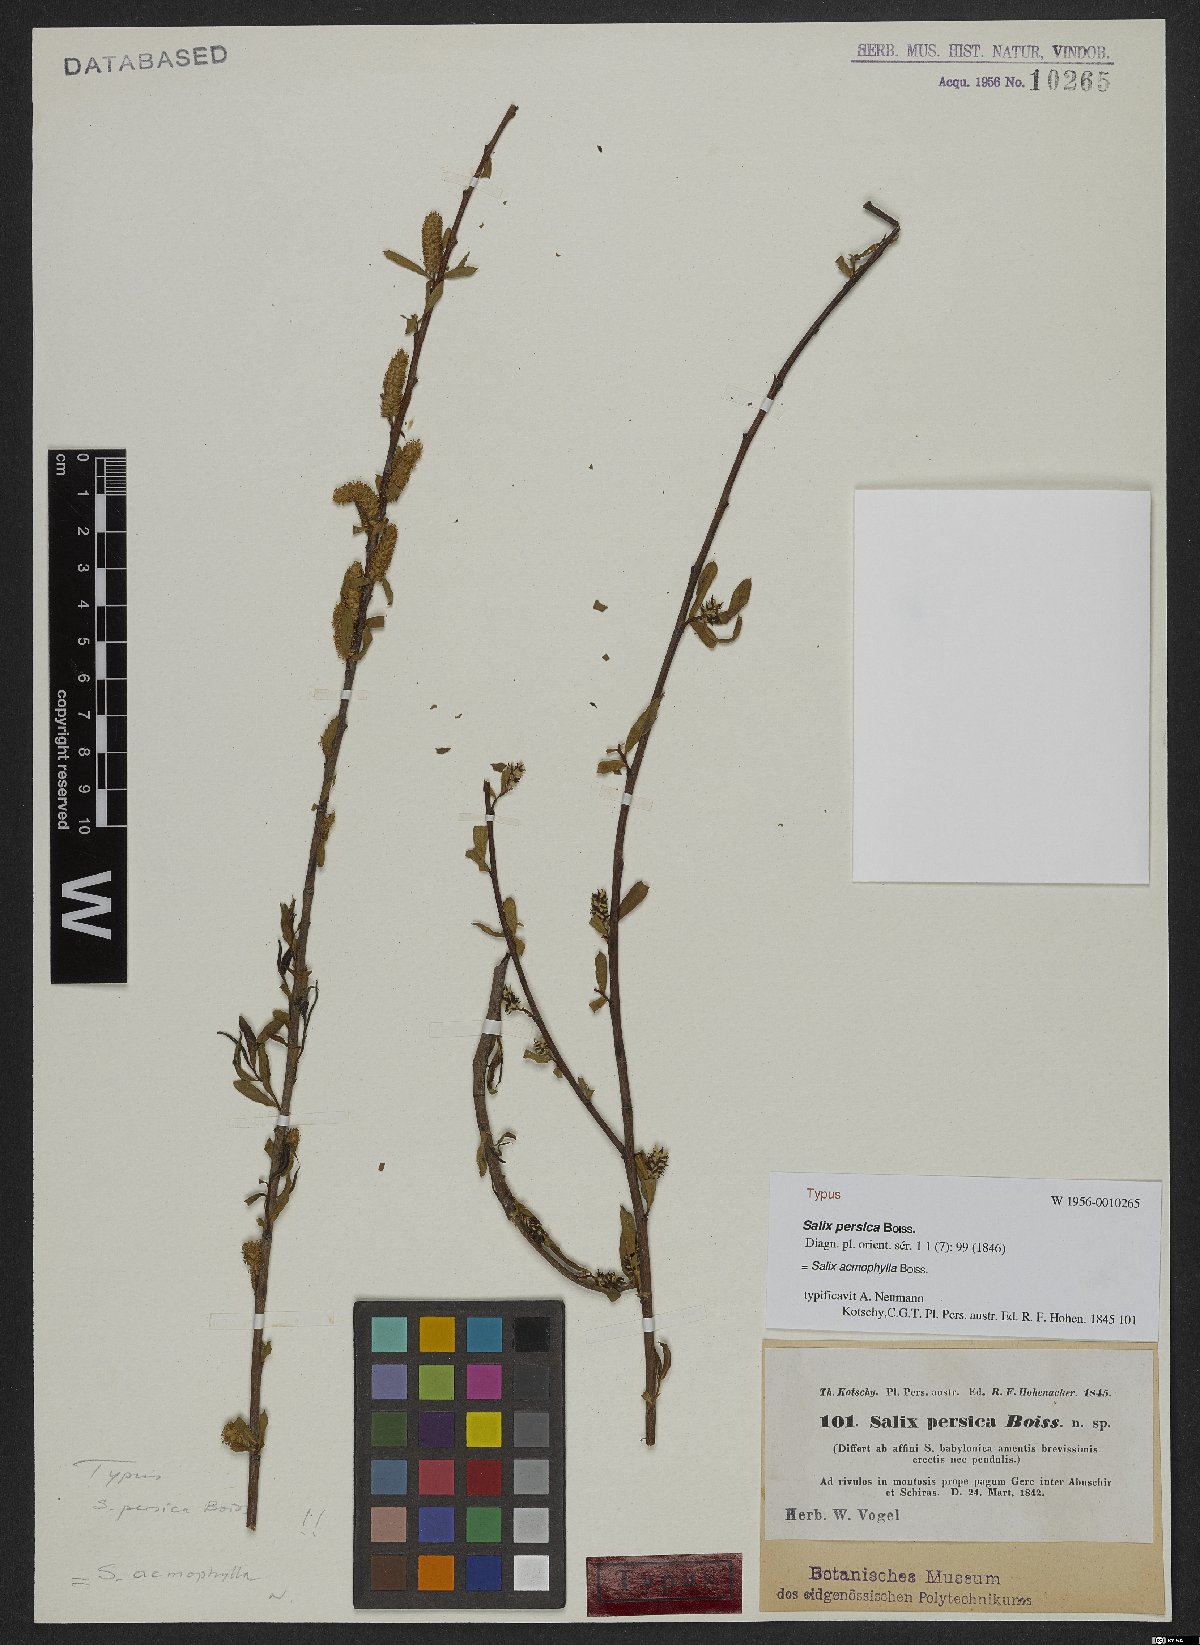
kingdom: Plantae
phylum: Tracheophyta
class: Magnoliopsida
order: Malpighiales
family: Salicaceae
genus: Salix
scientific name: Salix acmophylla
